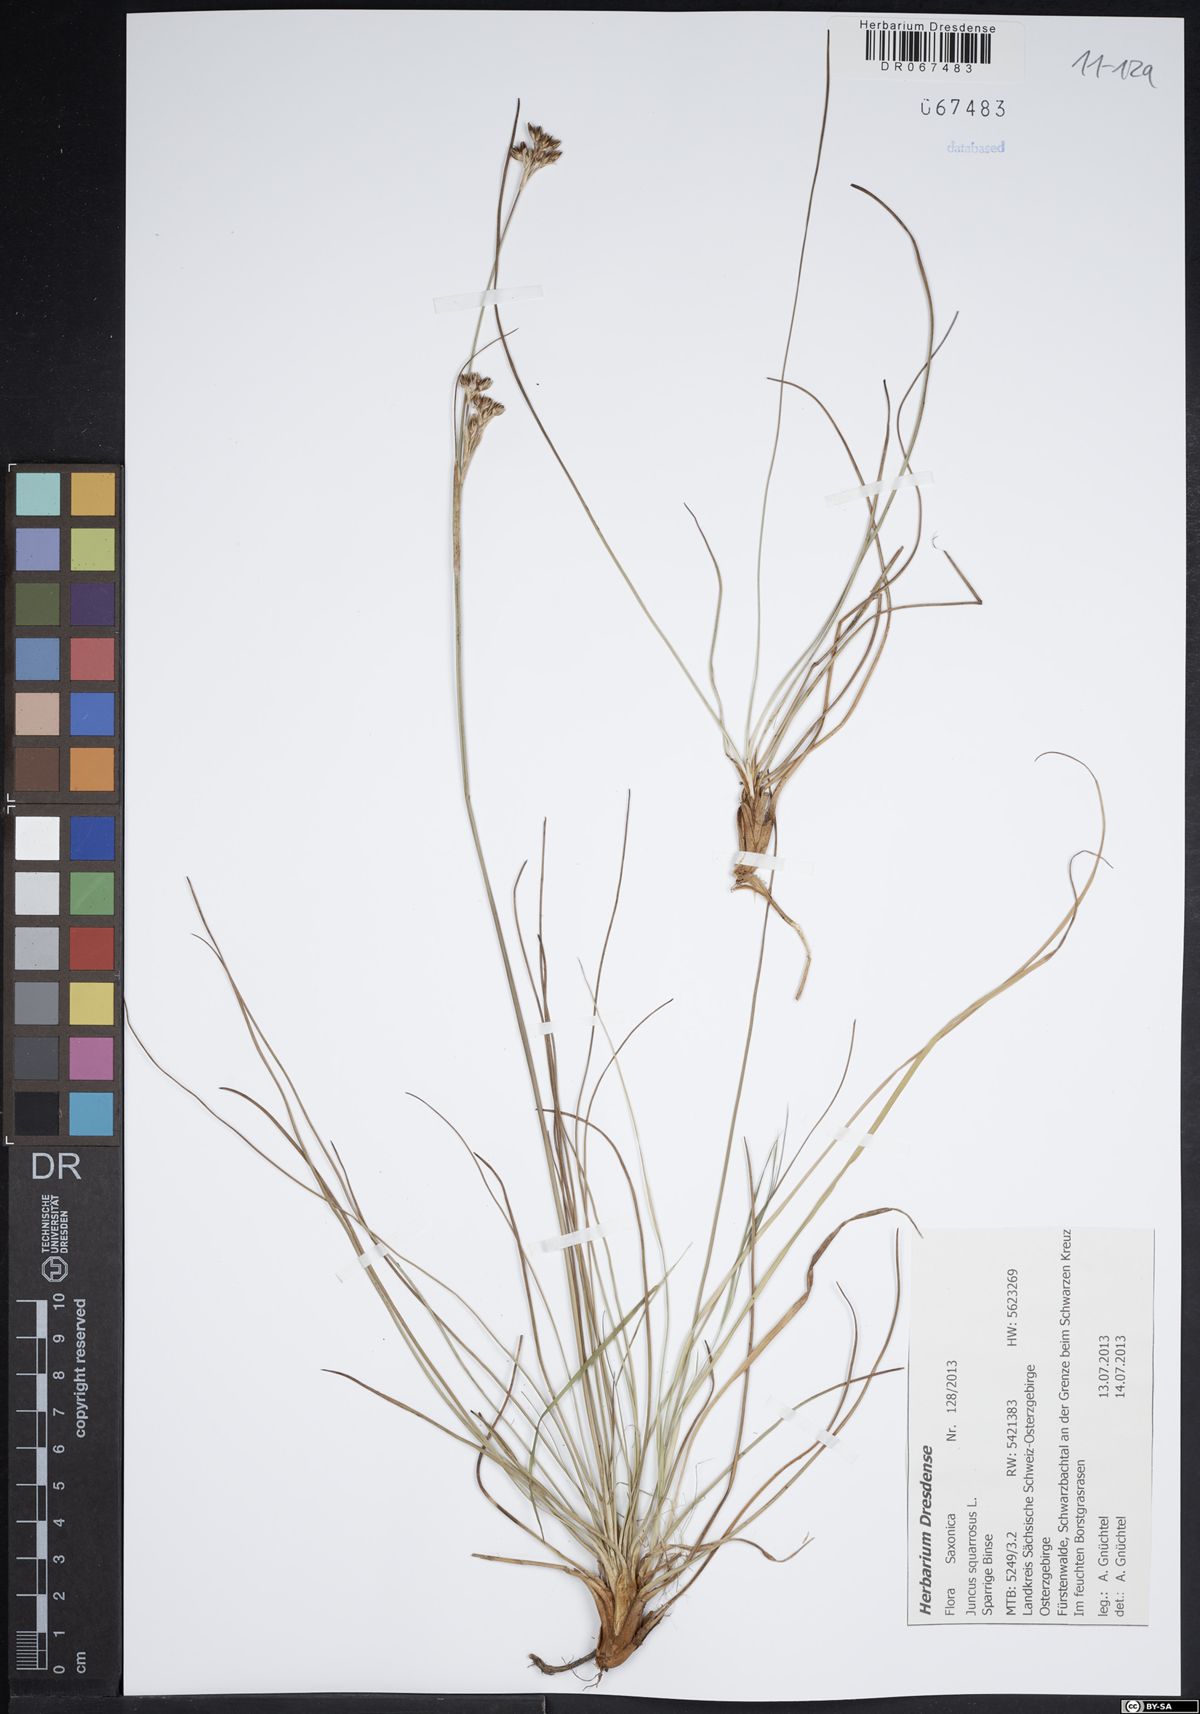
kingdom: Plantae
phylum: Tracheophyta
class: Liliopsida
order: Poales
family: Juncaceae
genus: Juncus
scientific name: Juncus squarrosus
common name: Heath rush
